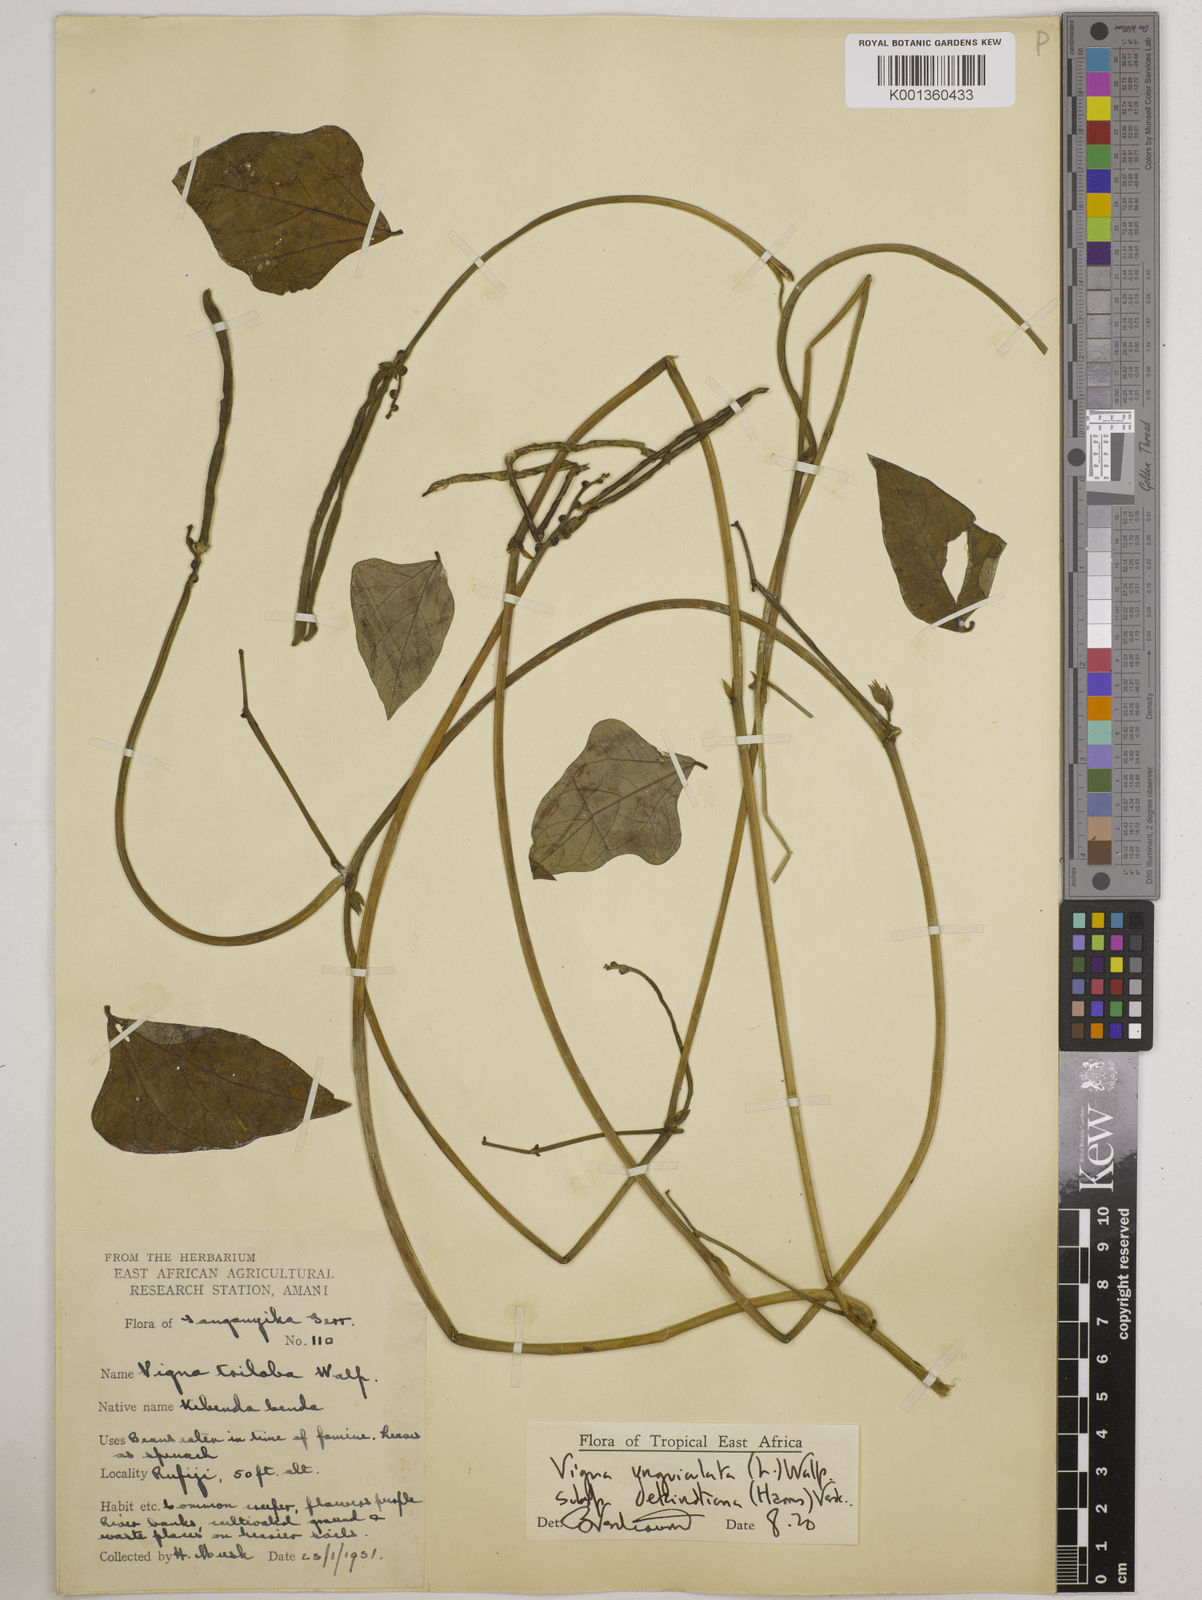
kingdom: Plantae
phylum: Tracheophyta
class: Magnoliopsida
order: Fabales
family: Fabaceae
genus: Vigna
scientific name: Vigna
